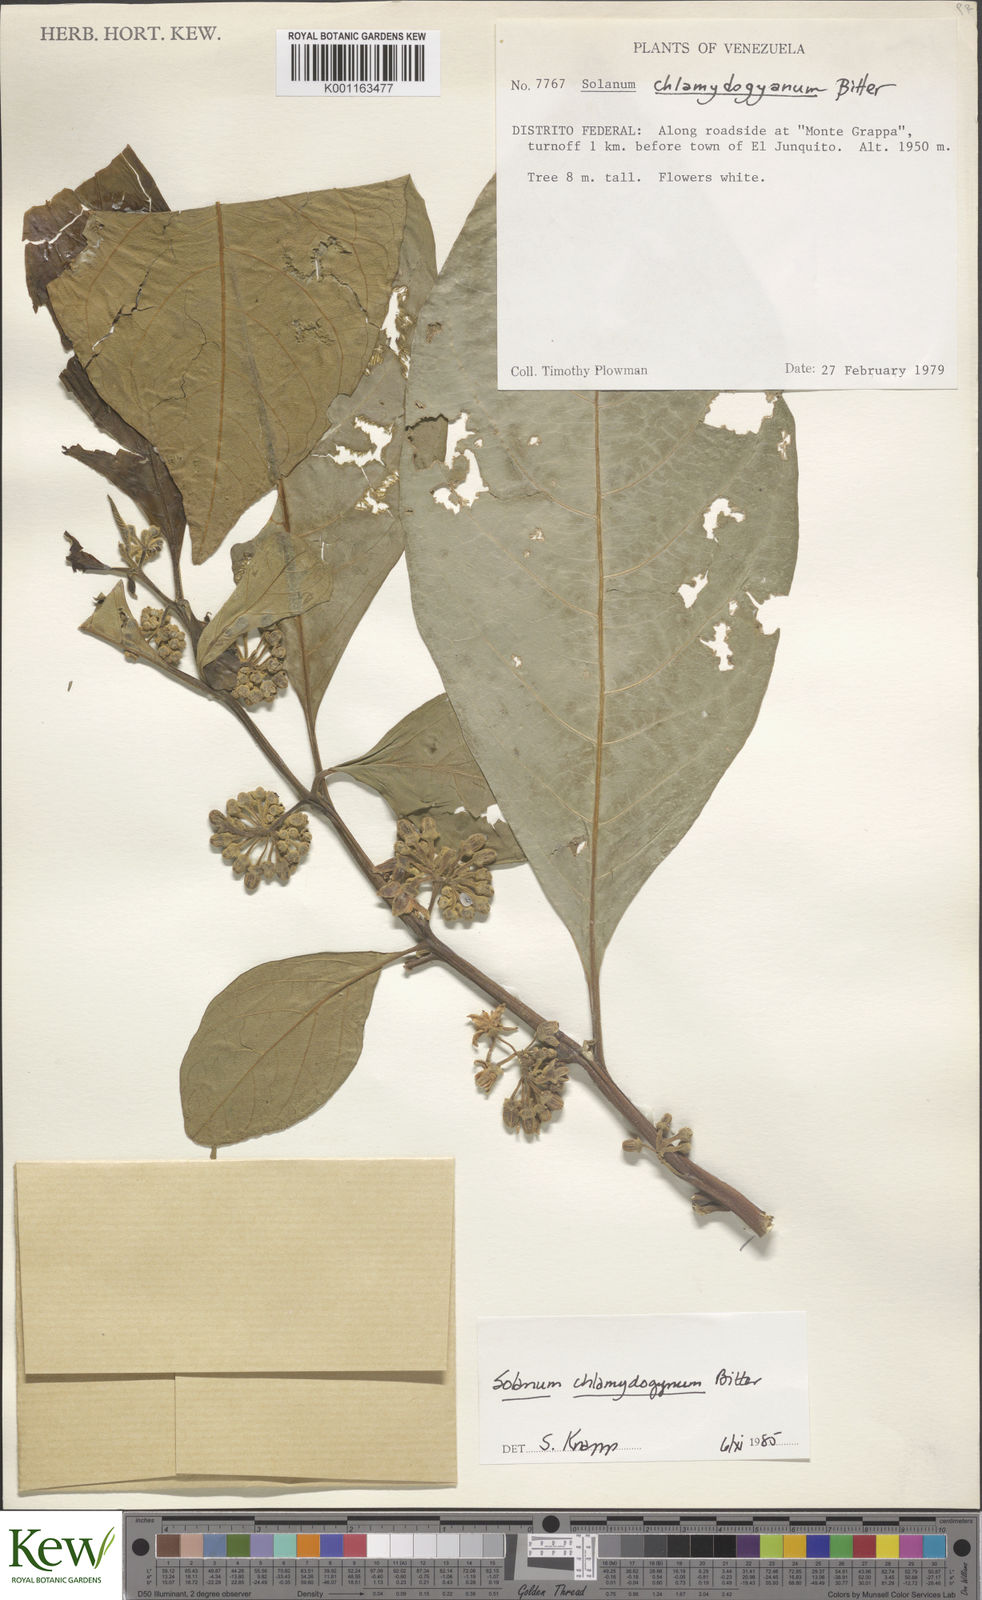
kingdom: Plantae
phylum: Tracheophyta
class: Magnoliopsida
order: Solanales
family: Solanaceae
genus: Solanum
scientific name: Solanum chlamydogynum
